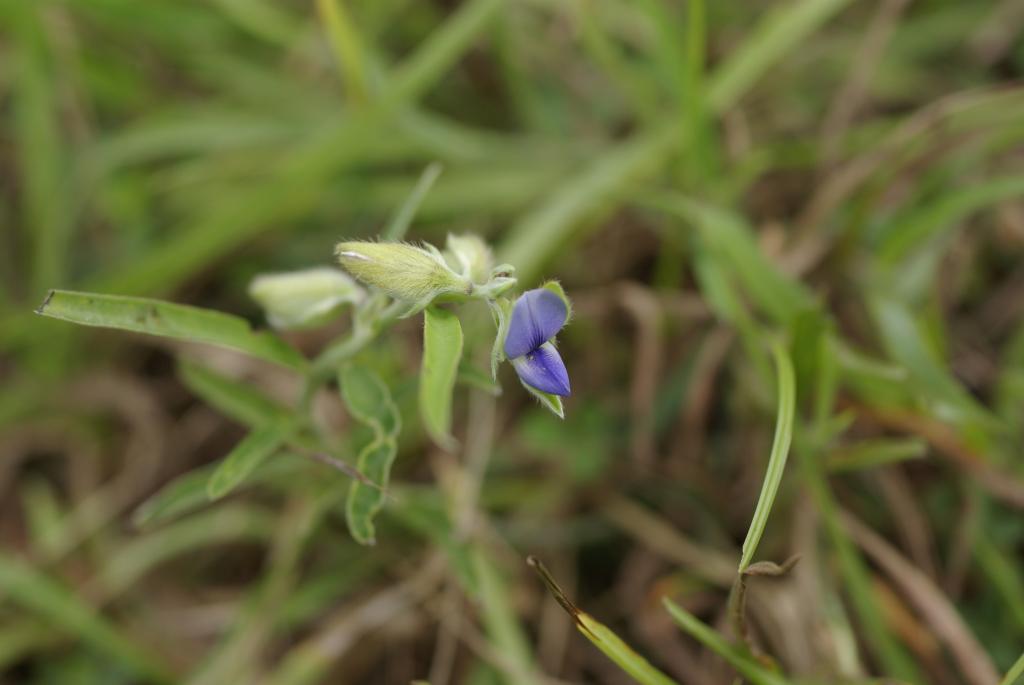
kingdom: Plantae
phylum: Tracheophyta
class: Magnoliopsida
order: Fabales
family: Fabaceae
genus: Crotalaria
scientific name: Crotalaria sessiliflora
